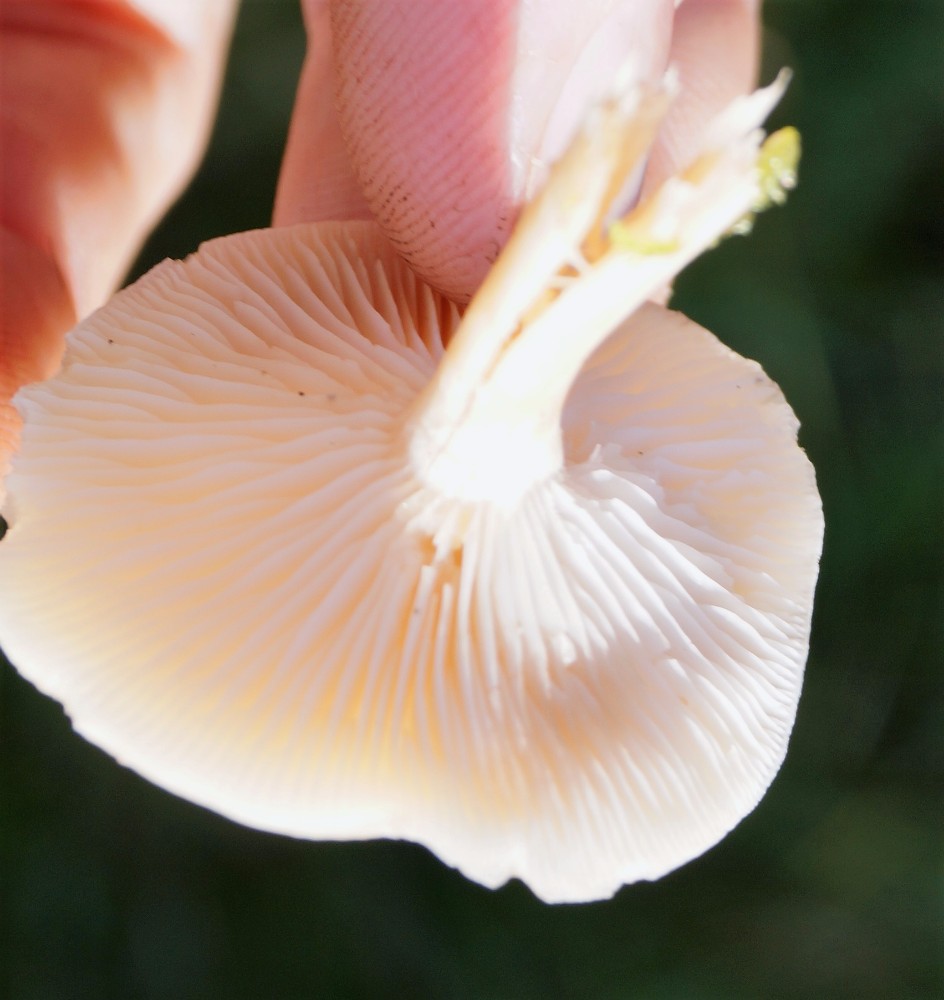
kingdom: Fungi
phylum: Basidiomycota
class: Agaricomycetes
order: Agaricales
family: Tricholomataceae
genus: Clitocybe
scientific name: Clitocybe fragrans
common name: vellugtende tragthat
